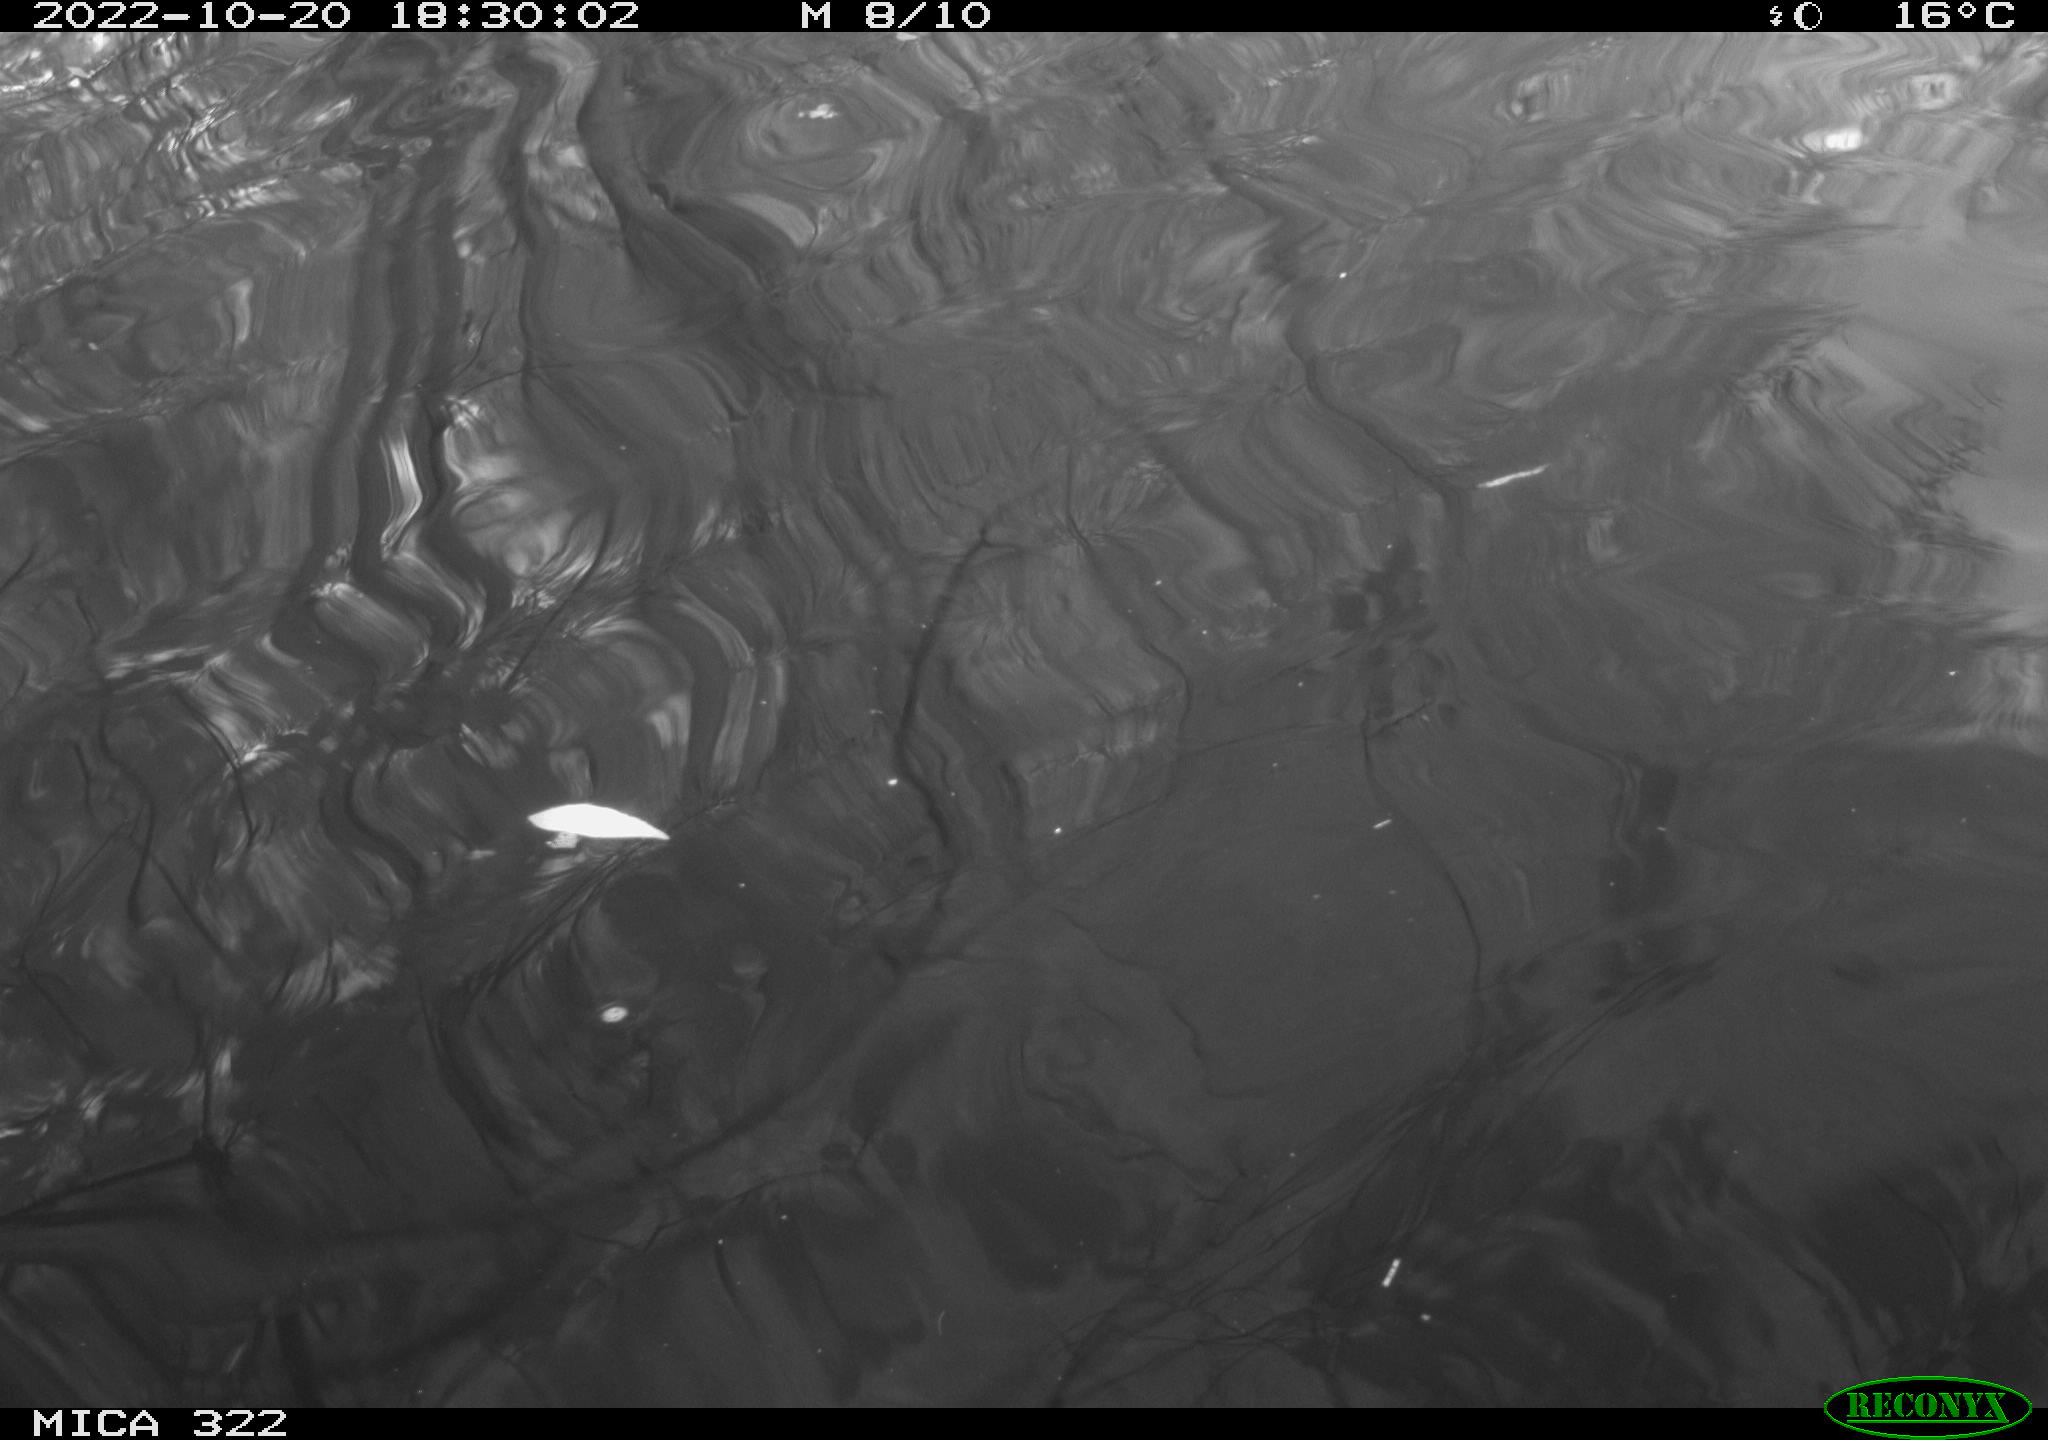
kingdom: Animalia
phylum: Chordata
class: Aves
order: Gruiformes
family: Rallidae
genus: Gallinula
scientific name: Gallinula chloropus
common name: Common moorhen
